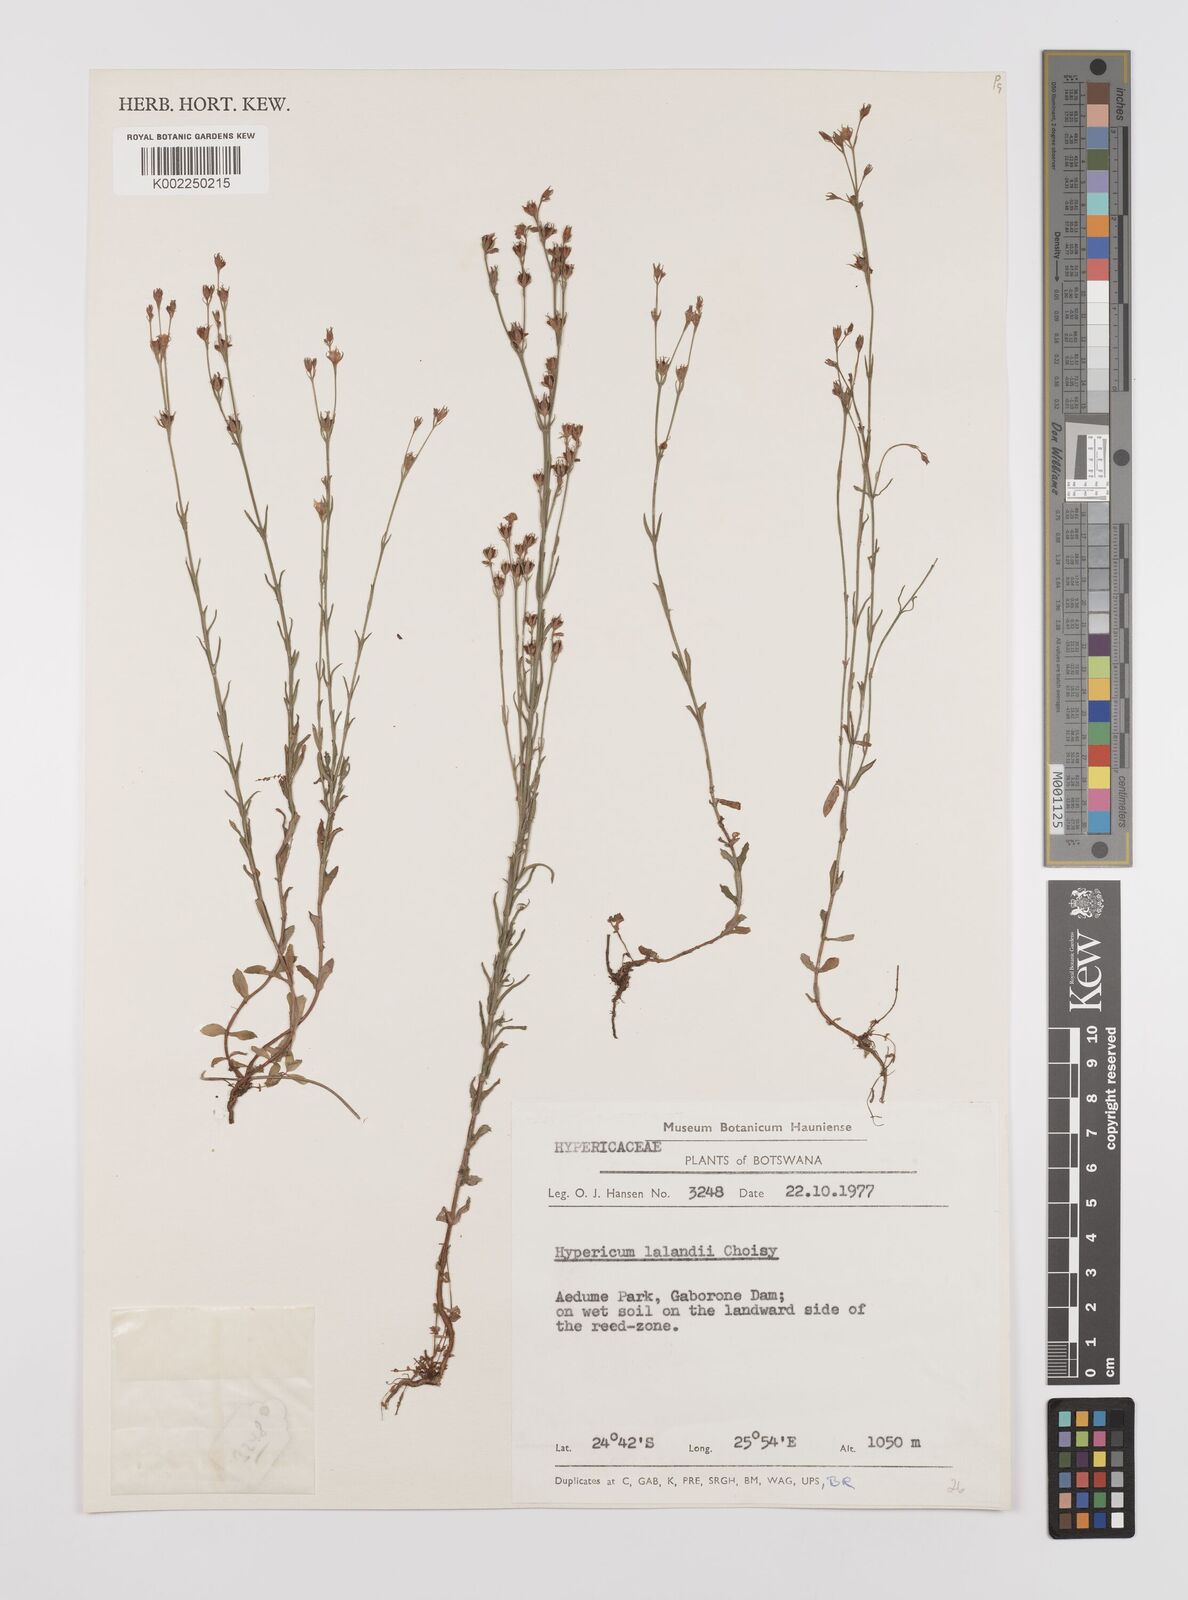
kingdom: Plantae
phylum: Tracheophyta
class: Magnoliopsida
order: Malpighiales
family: Hypericaceae
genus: Hypericum
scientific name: Hypericum lalandii
